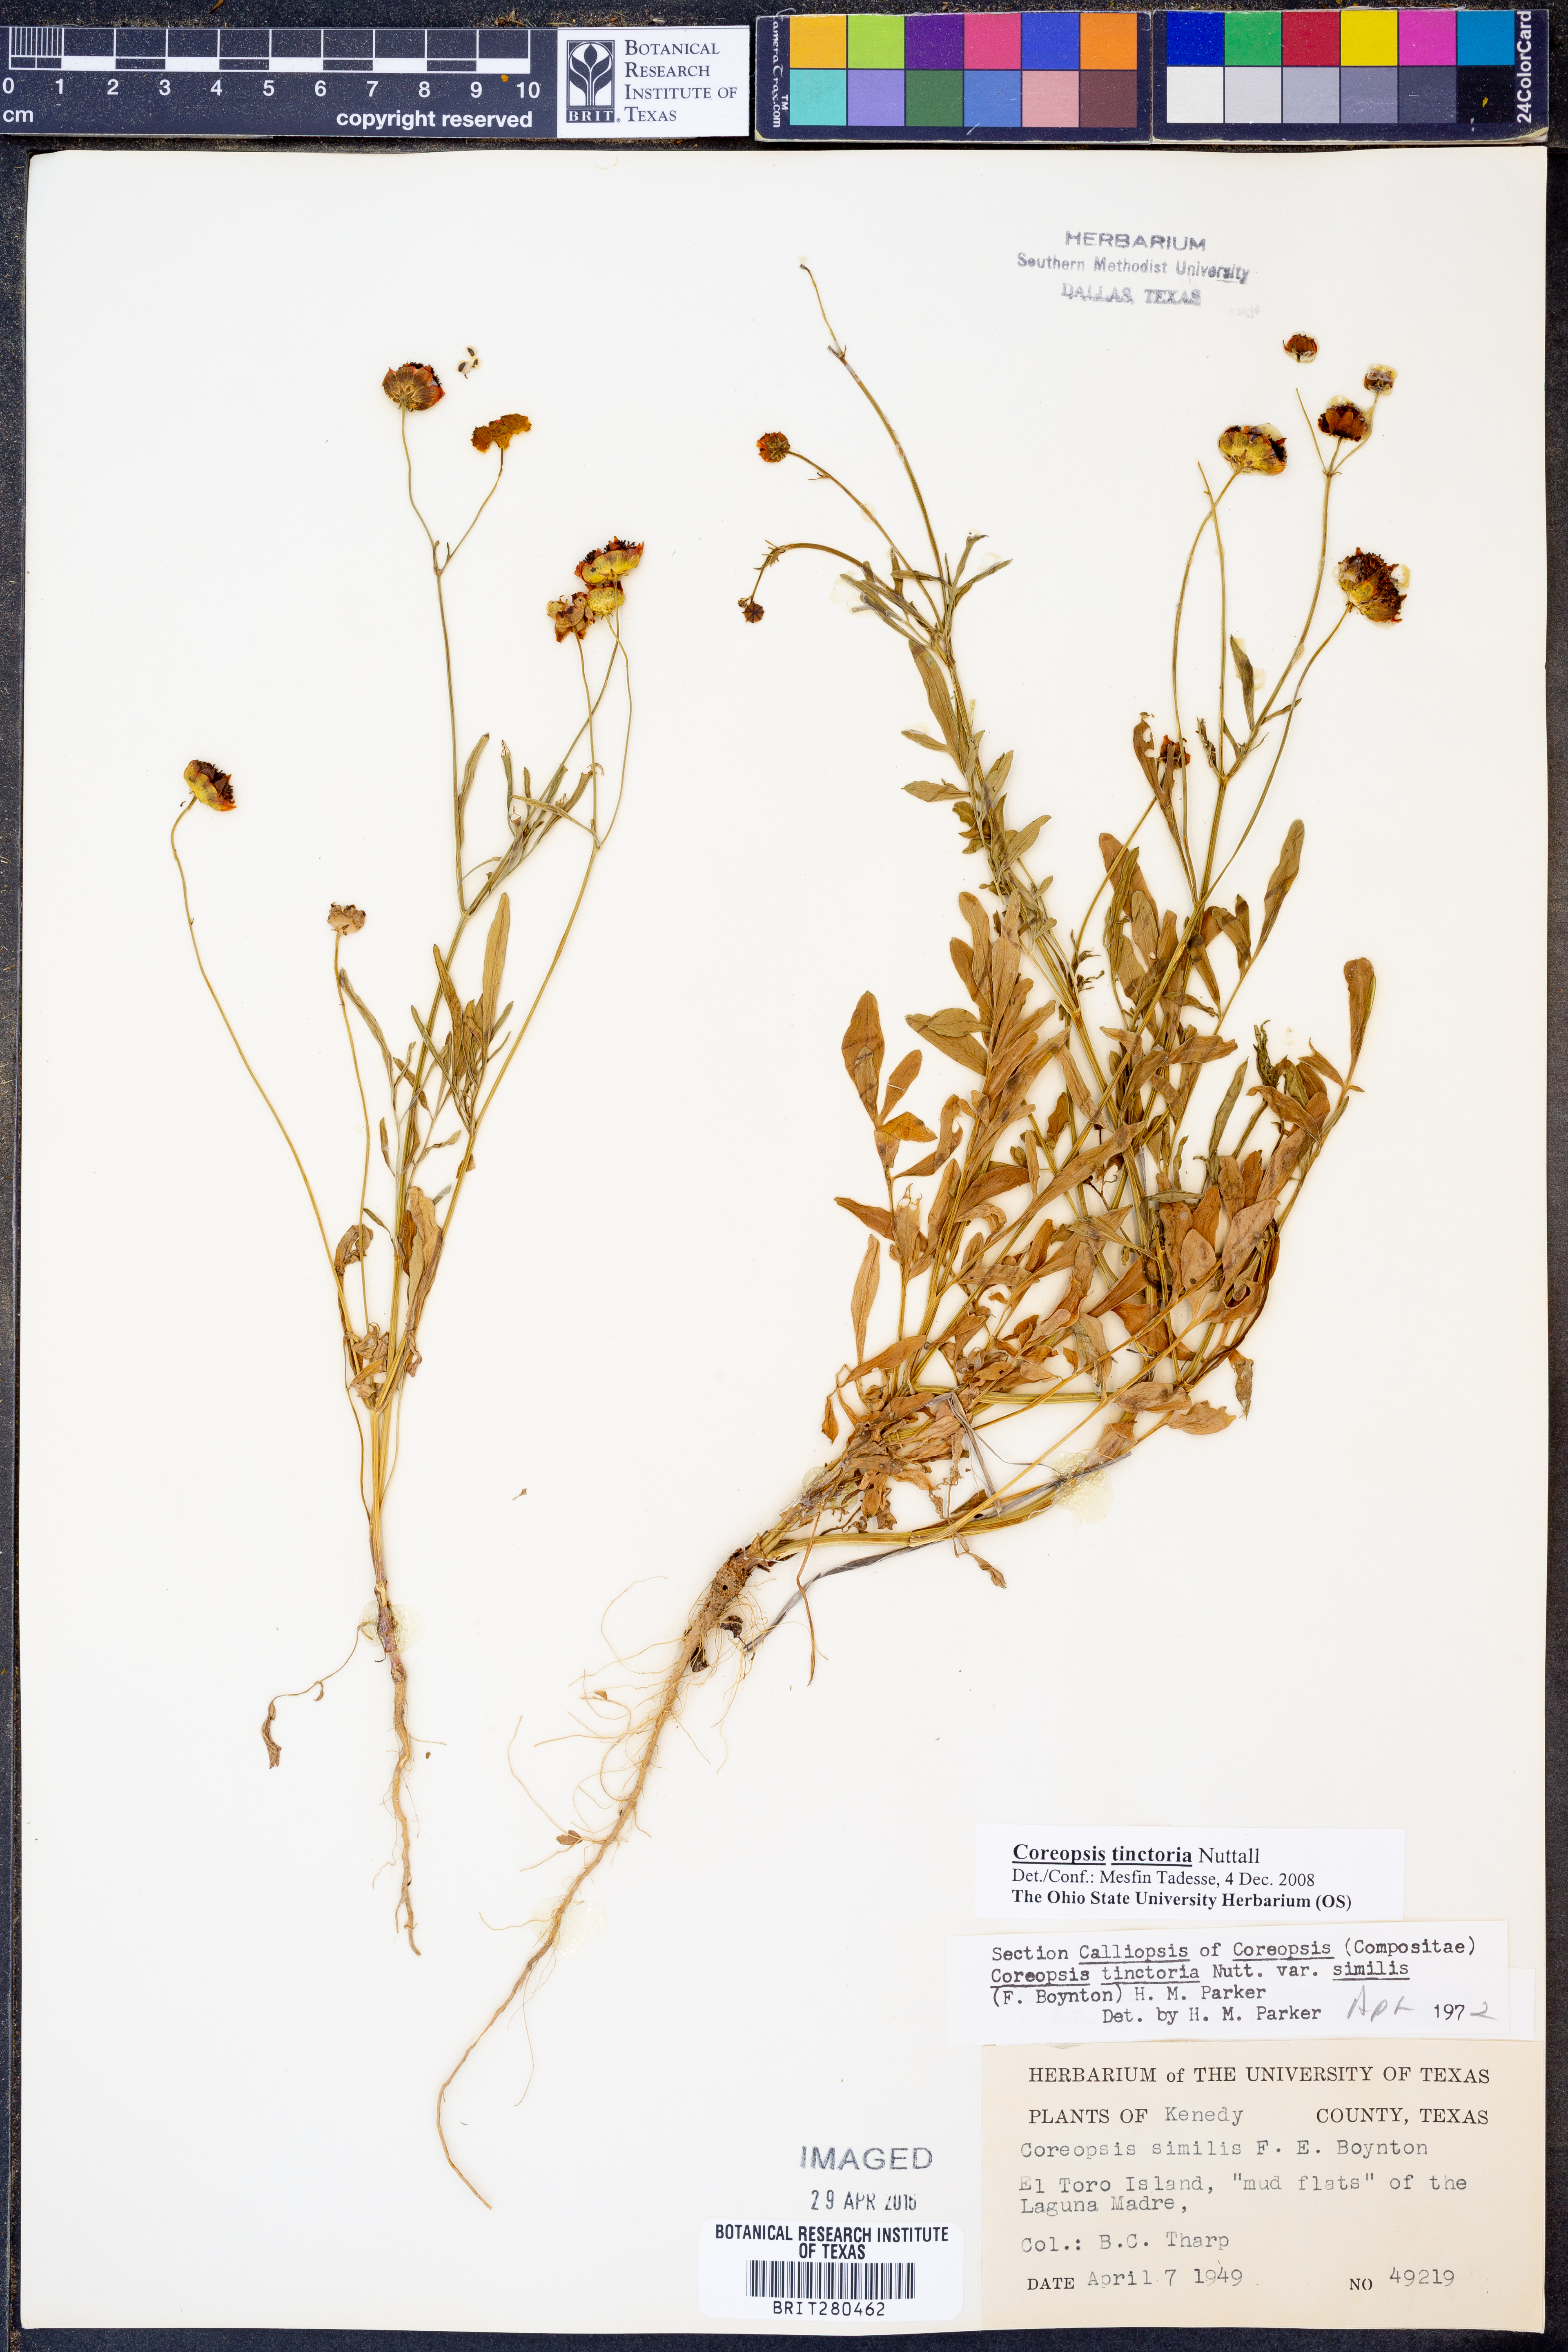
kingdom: Plantae
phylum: Tracheophyta
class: Magnoliopsida
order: Asterales
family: Asteraceae
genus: Coreopsis
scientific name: Coreopsis tinctoria
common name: Garden tickseed
